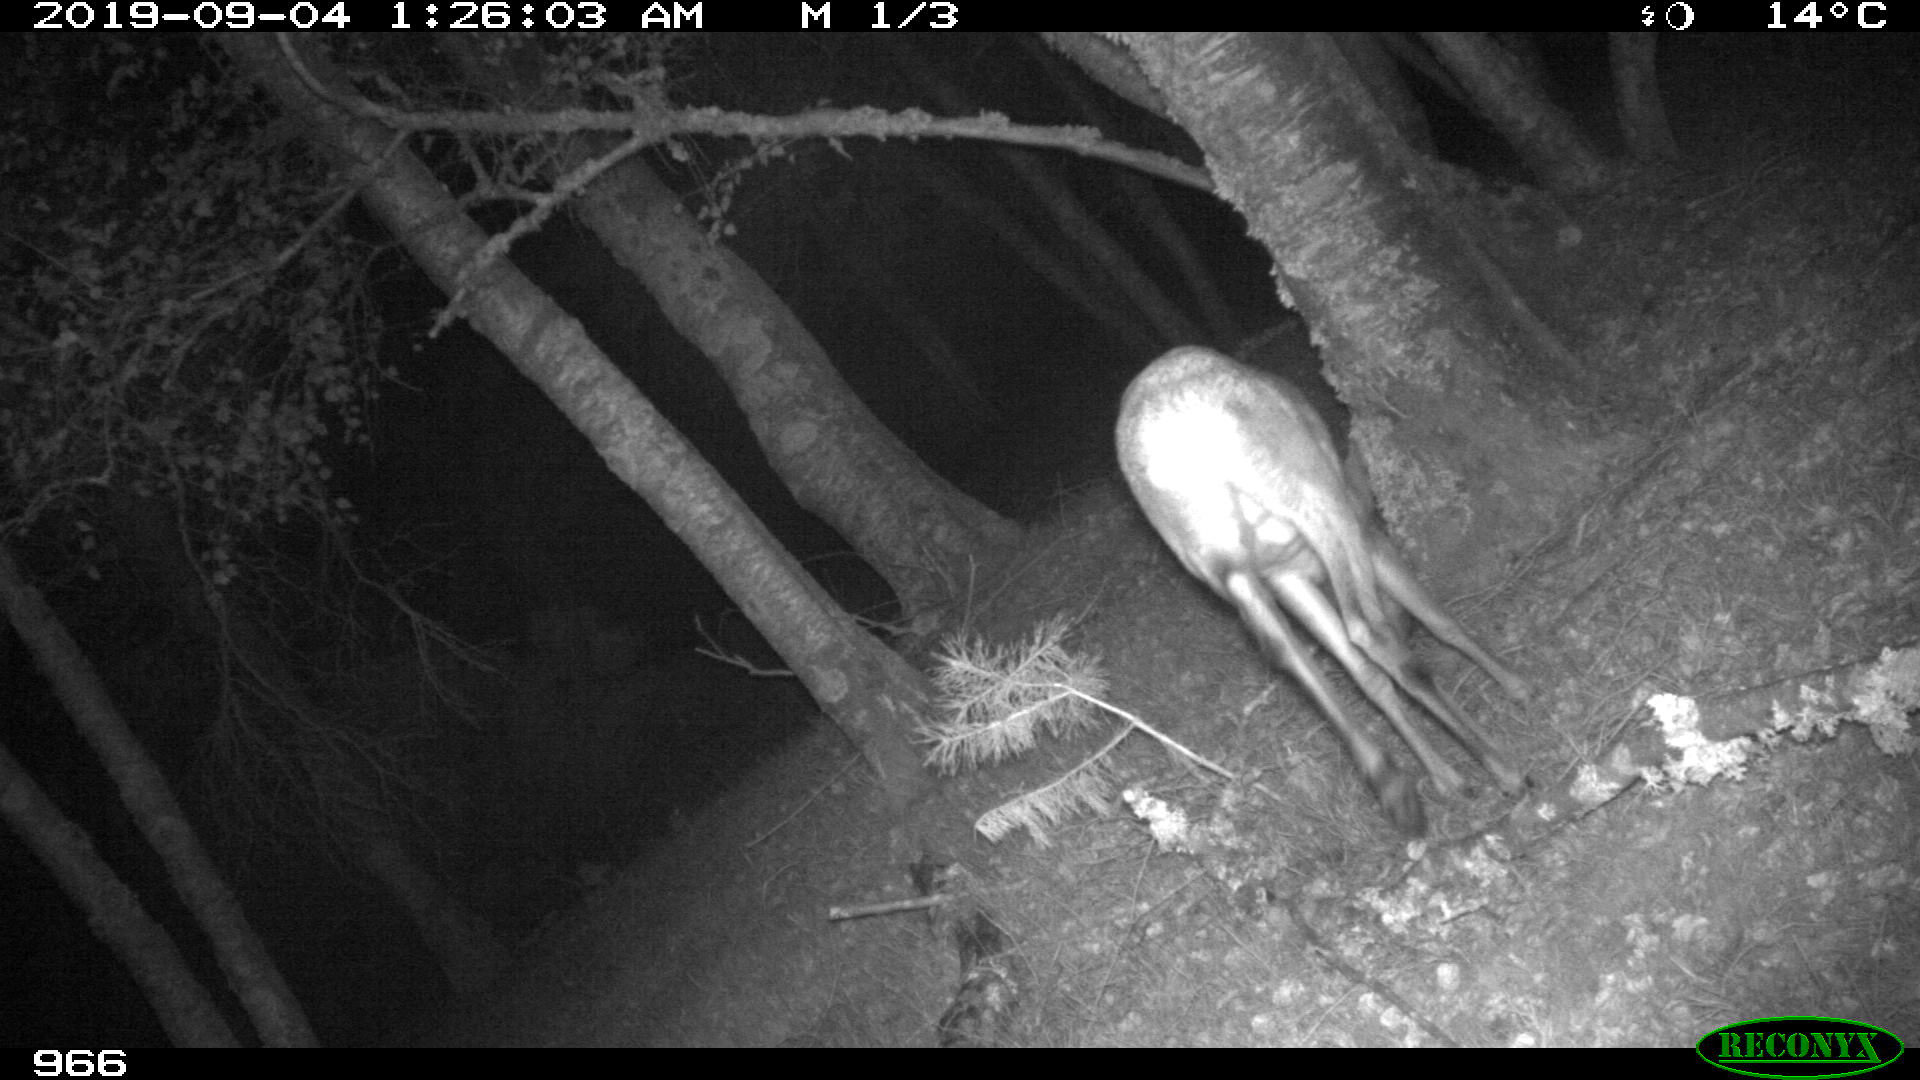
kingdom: Animalia
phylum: Chordata
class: Mammalia
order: Artiodactyla
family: Cervidae
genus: Capreolus
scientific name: Capreolus capreolus
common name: Western roe deer
